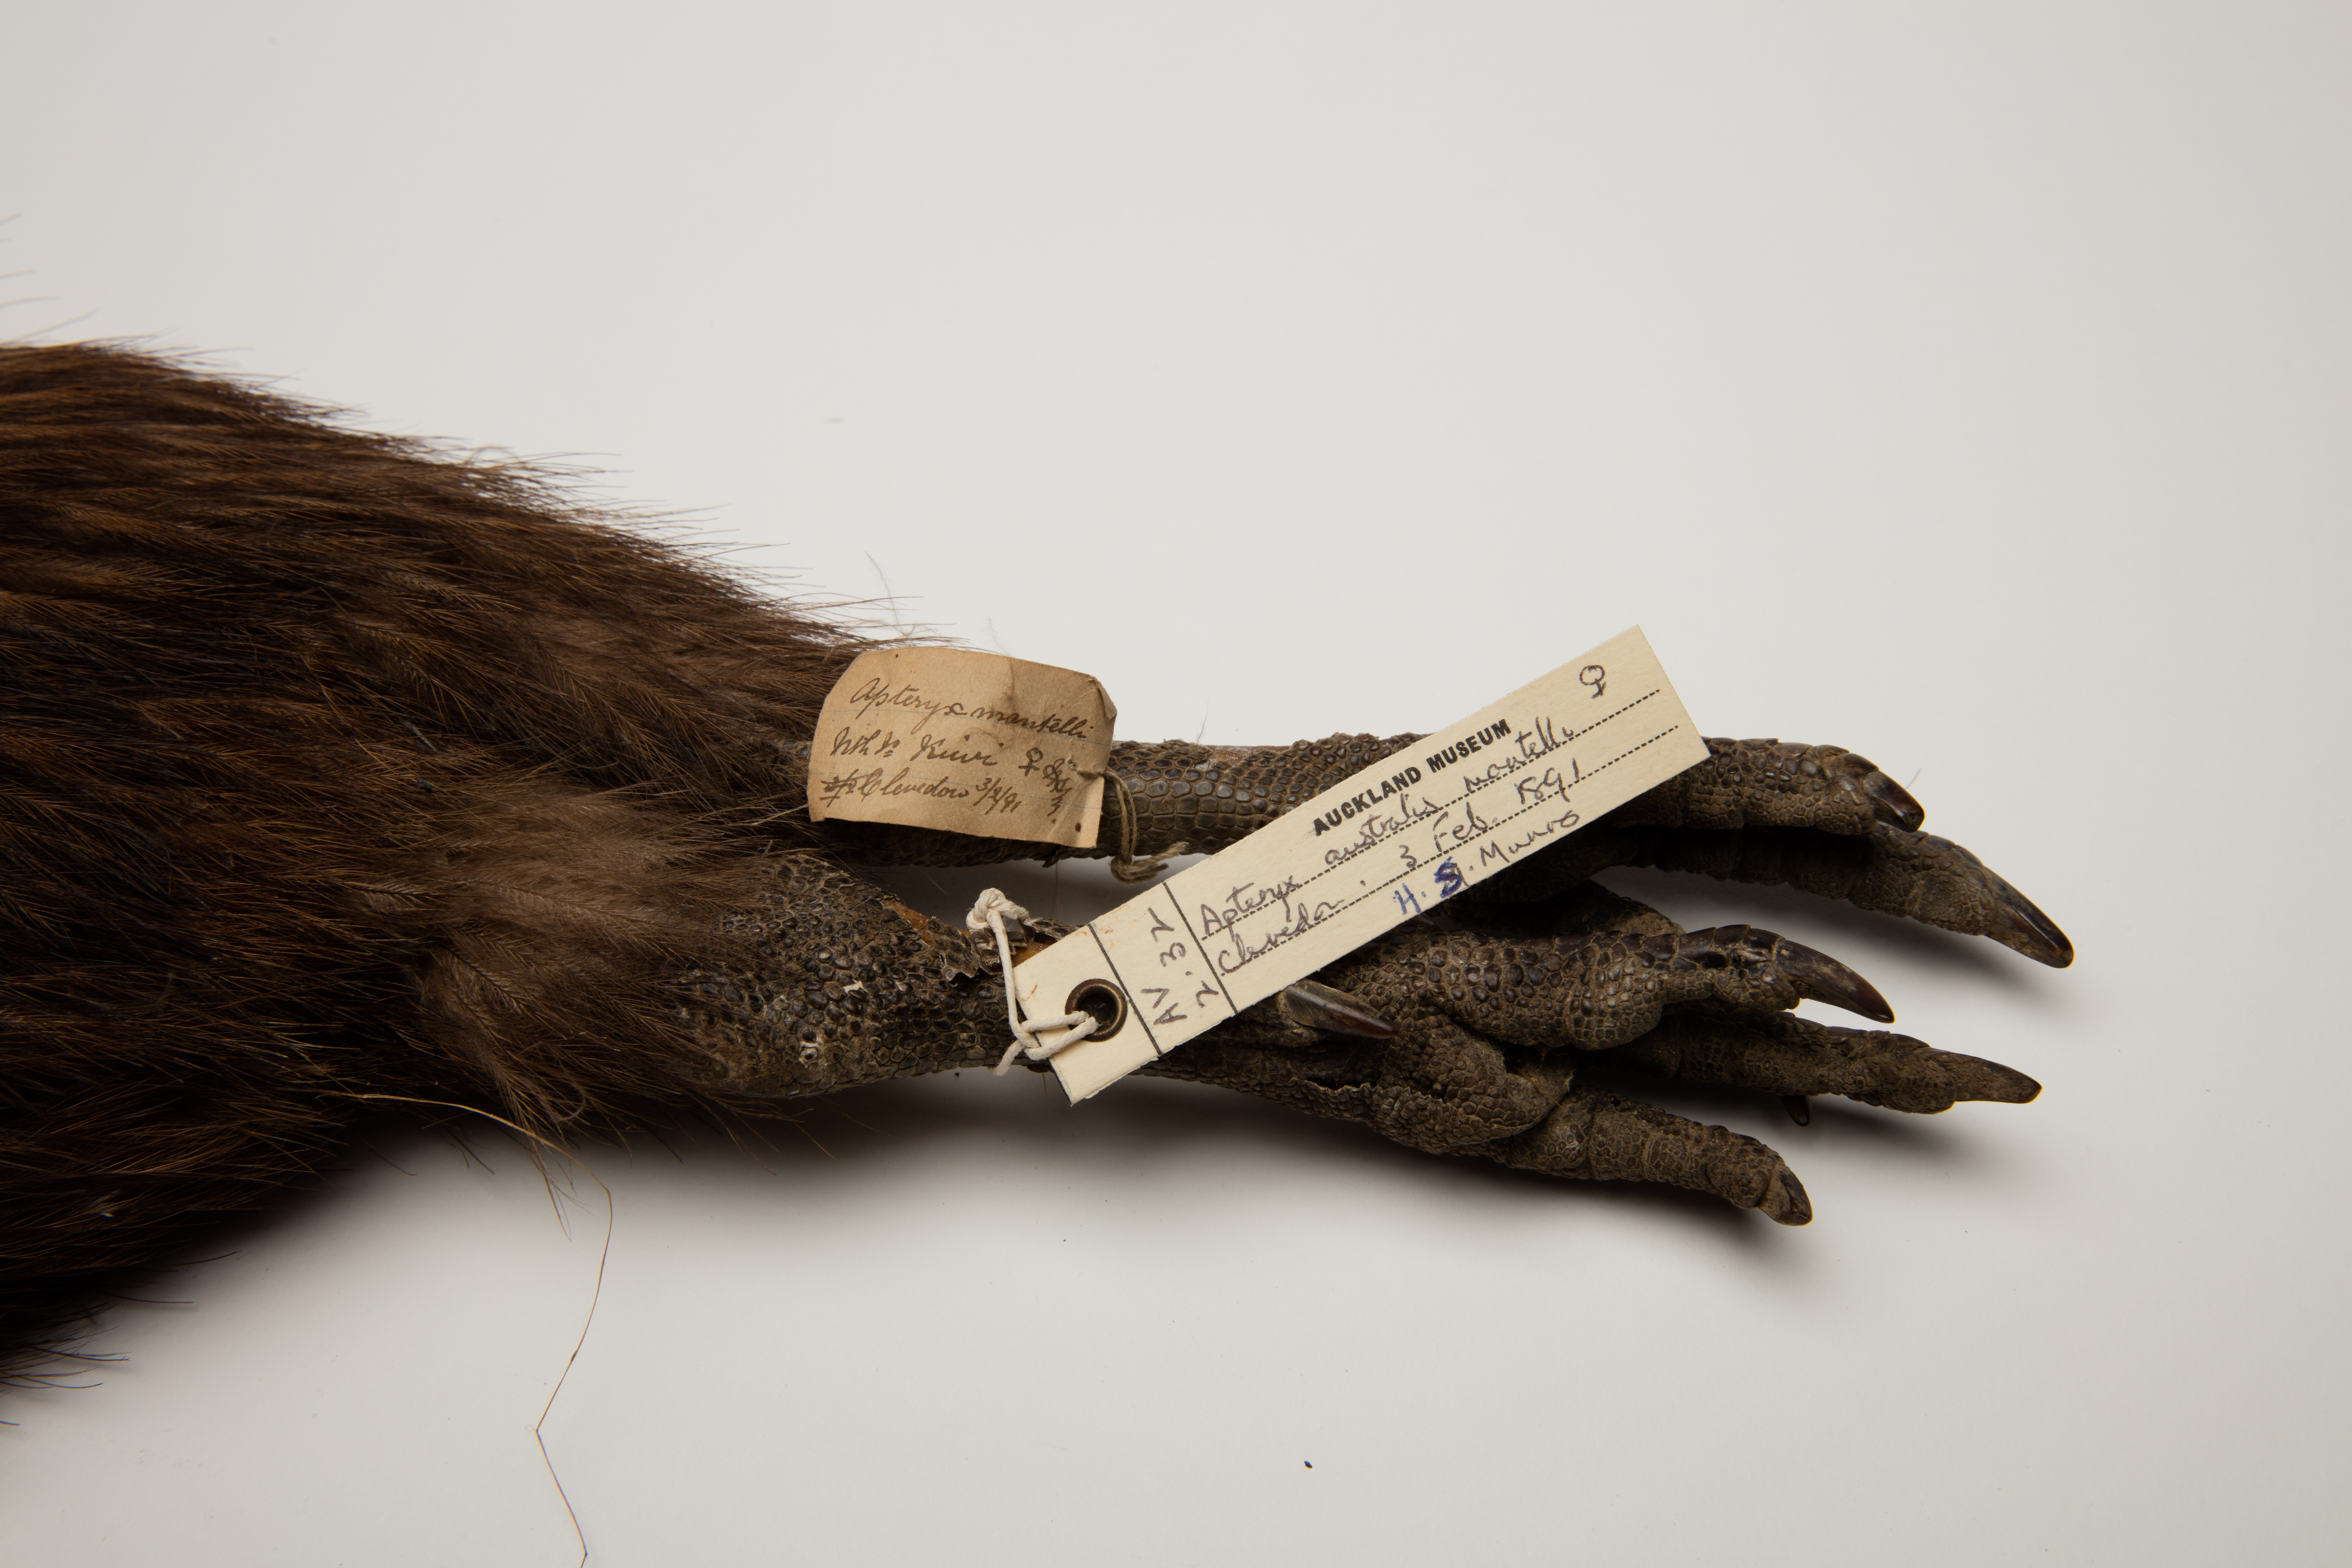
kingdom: Animalia
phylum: Chordata
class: Aves
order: Apterygiformes
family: Apterygidae
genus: Apteryx
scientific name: Apteryx mantelli
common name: North island brown kiwi
